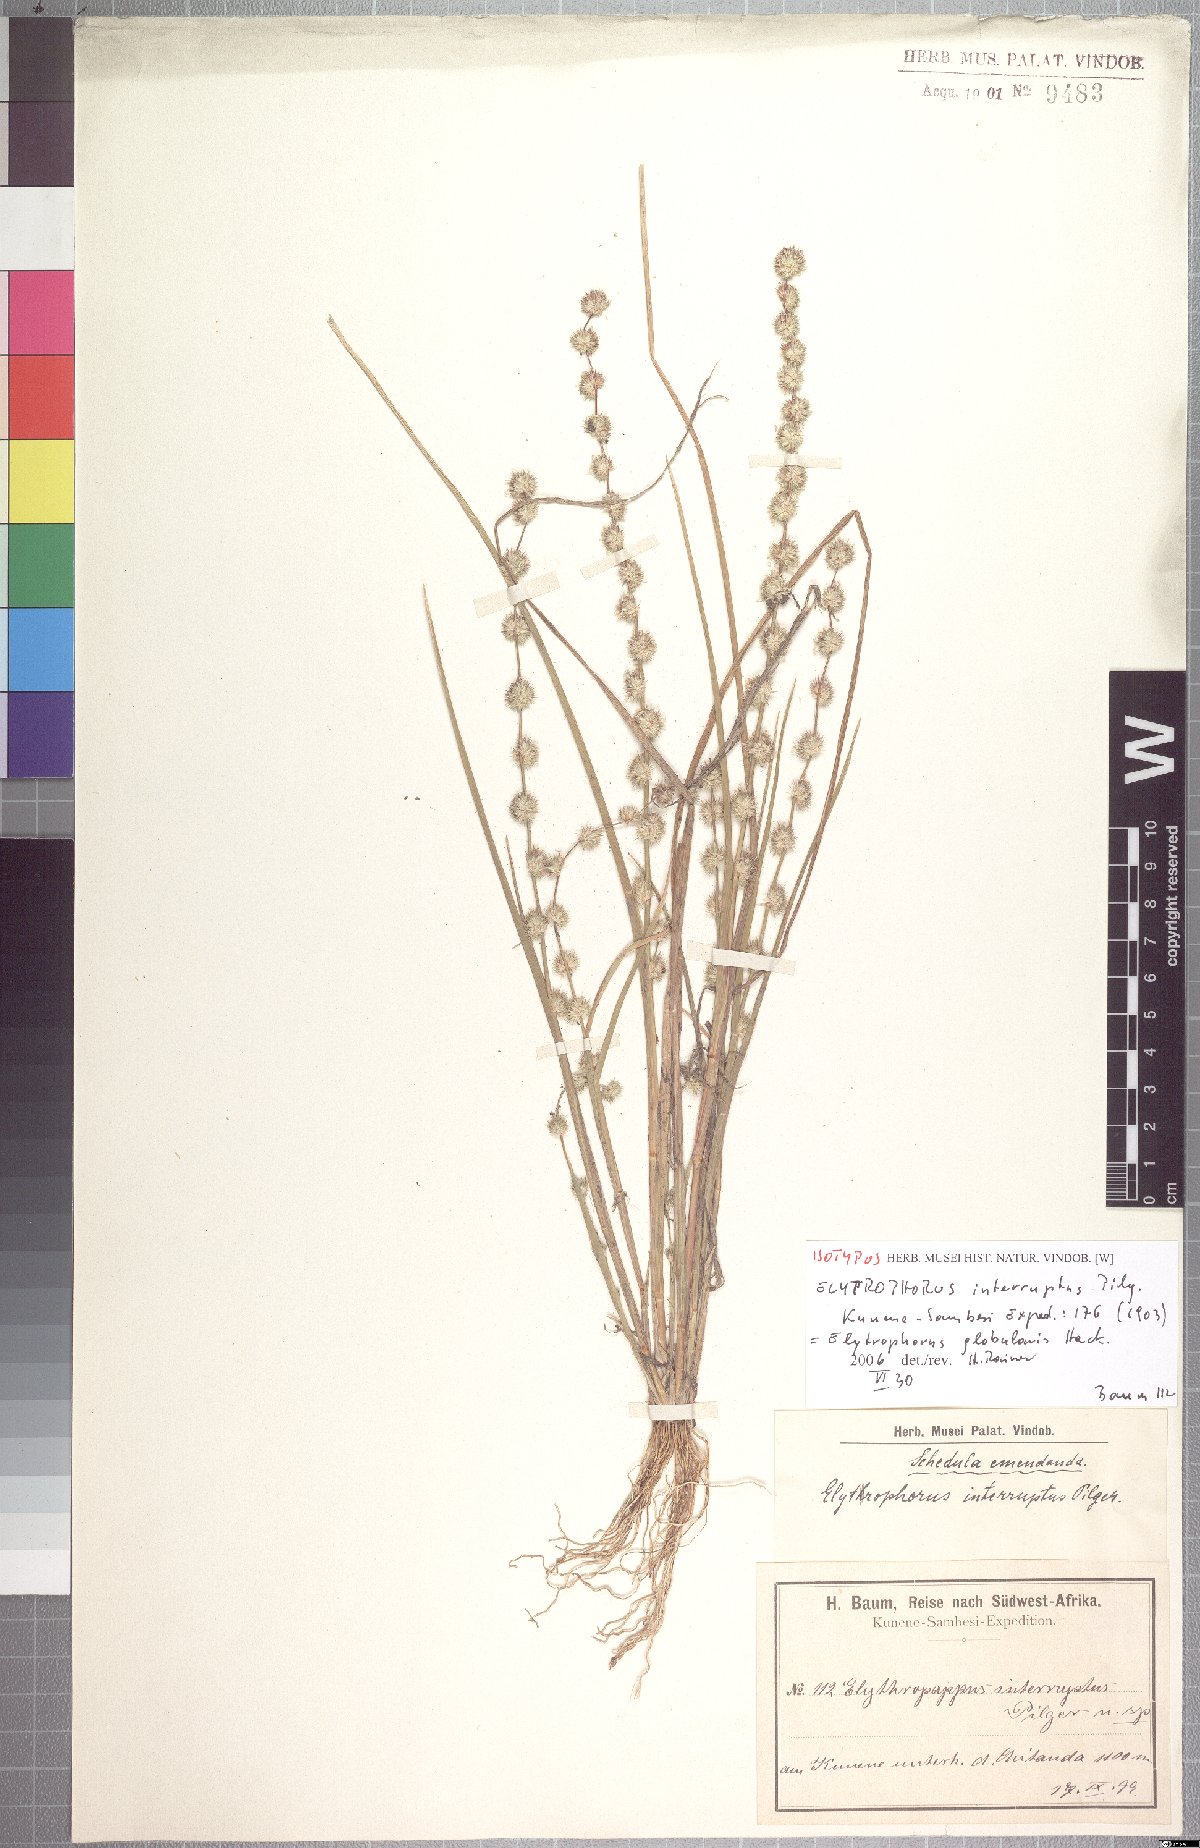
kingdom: Plantae
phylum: Tracheophyta
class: Liliopsida
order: Poales
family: Poaceae
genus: Elytrophorus
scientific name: Elytrophorus globularis
